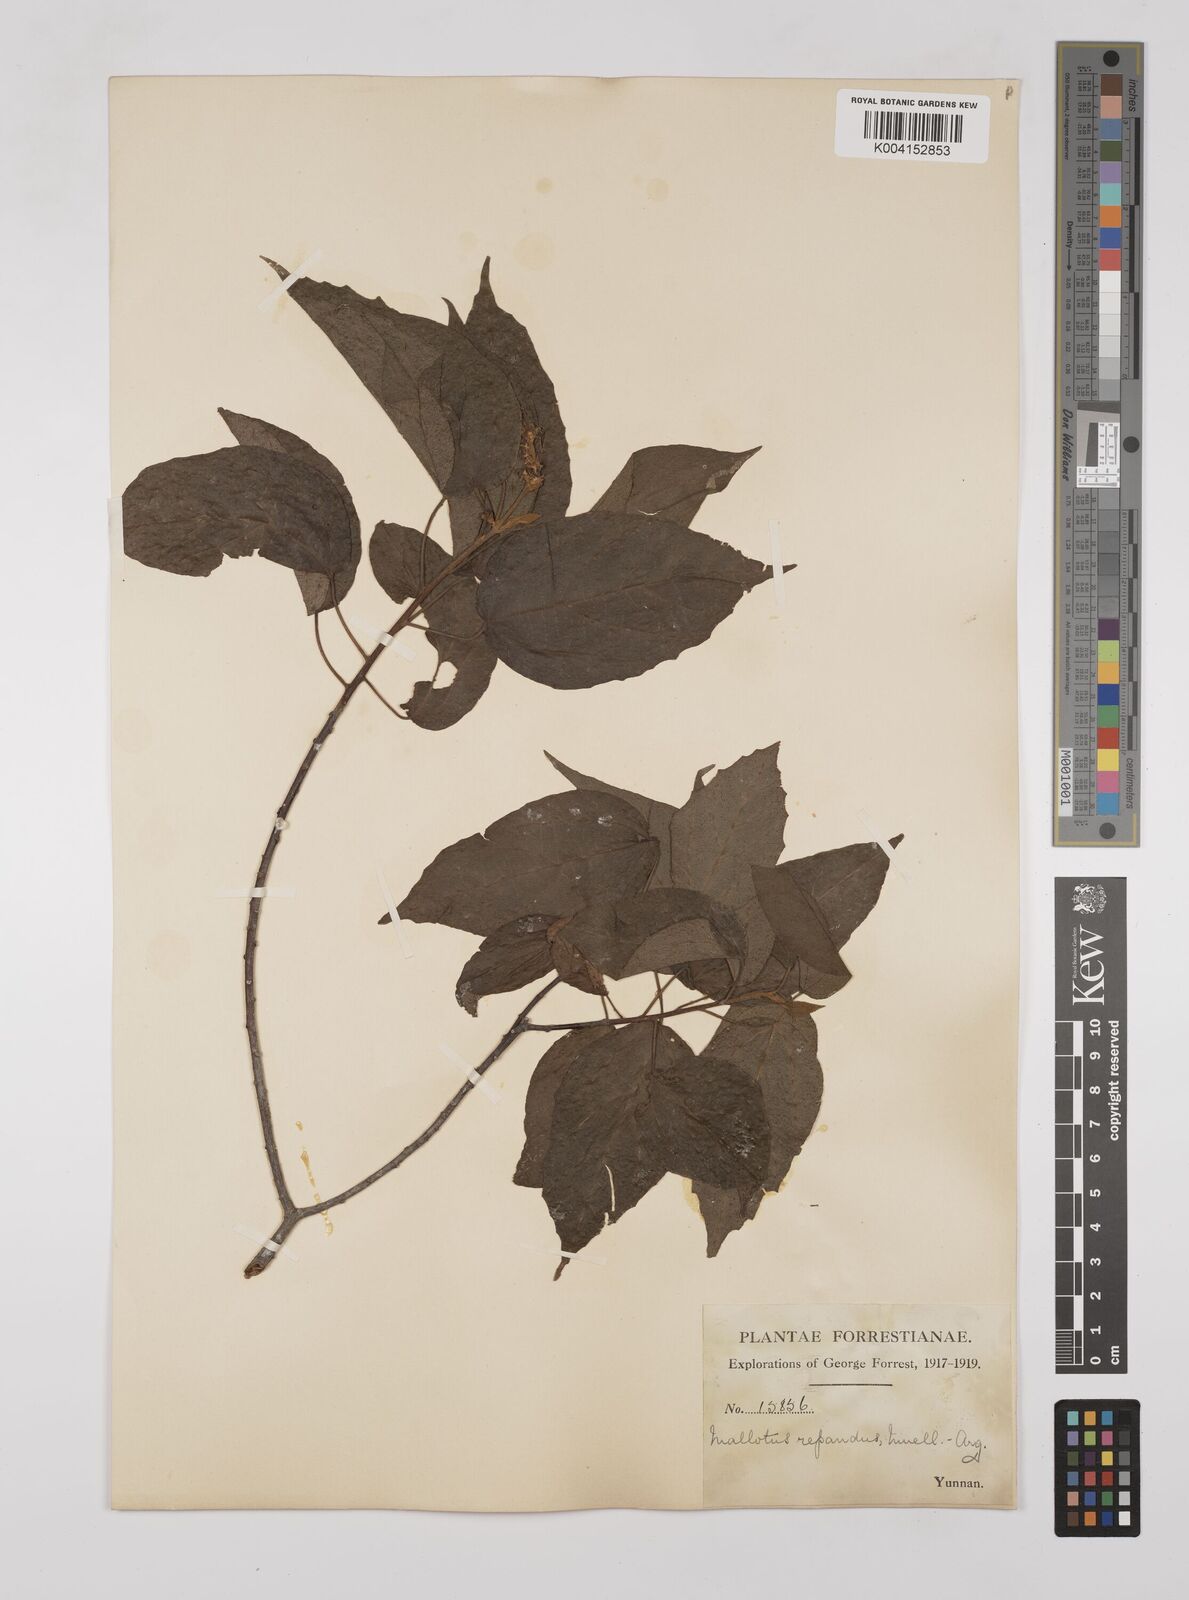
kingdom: Plantae
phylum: Tracheophyta
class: Magnoliopsida
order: Malpighiales
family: Euphorbiaceae
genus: Mallotus
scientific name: Mallotus illudens
